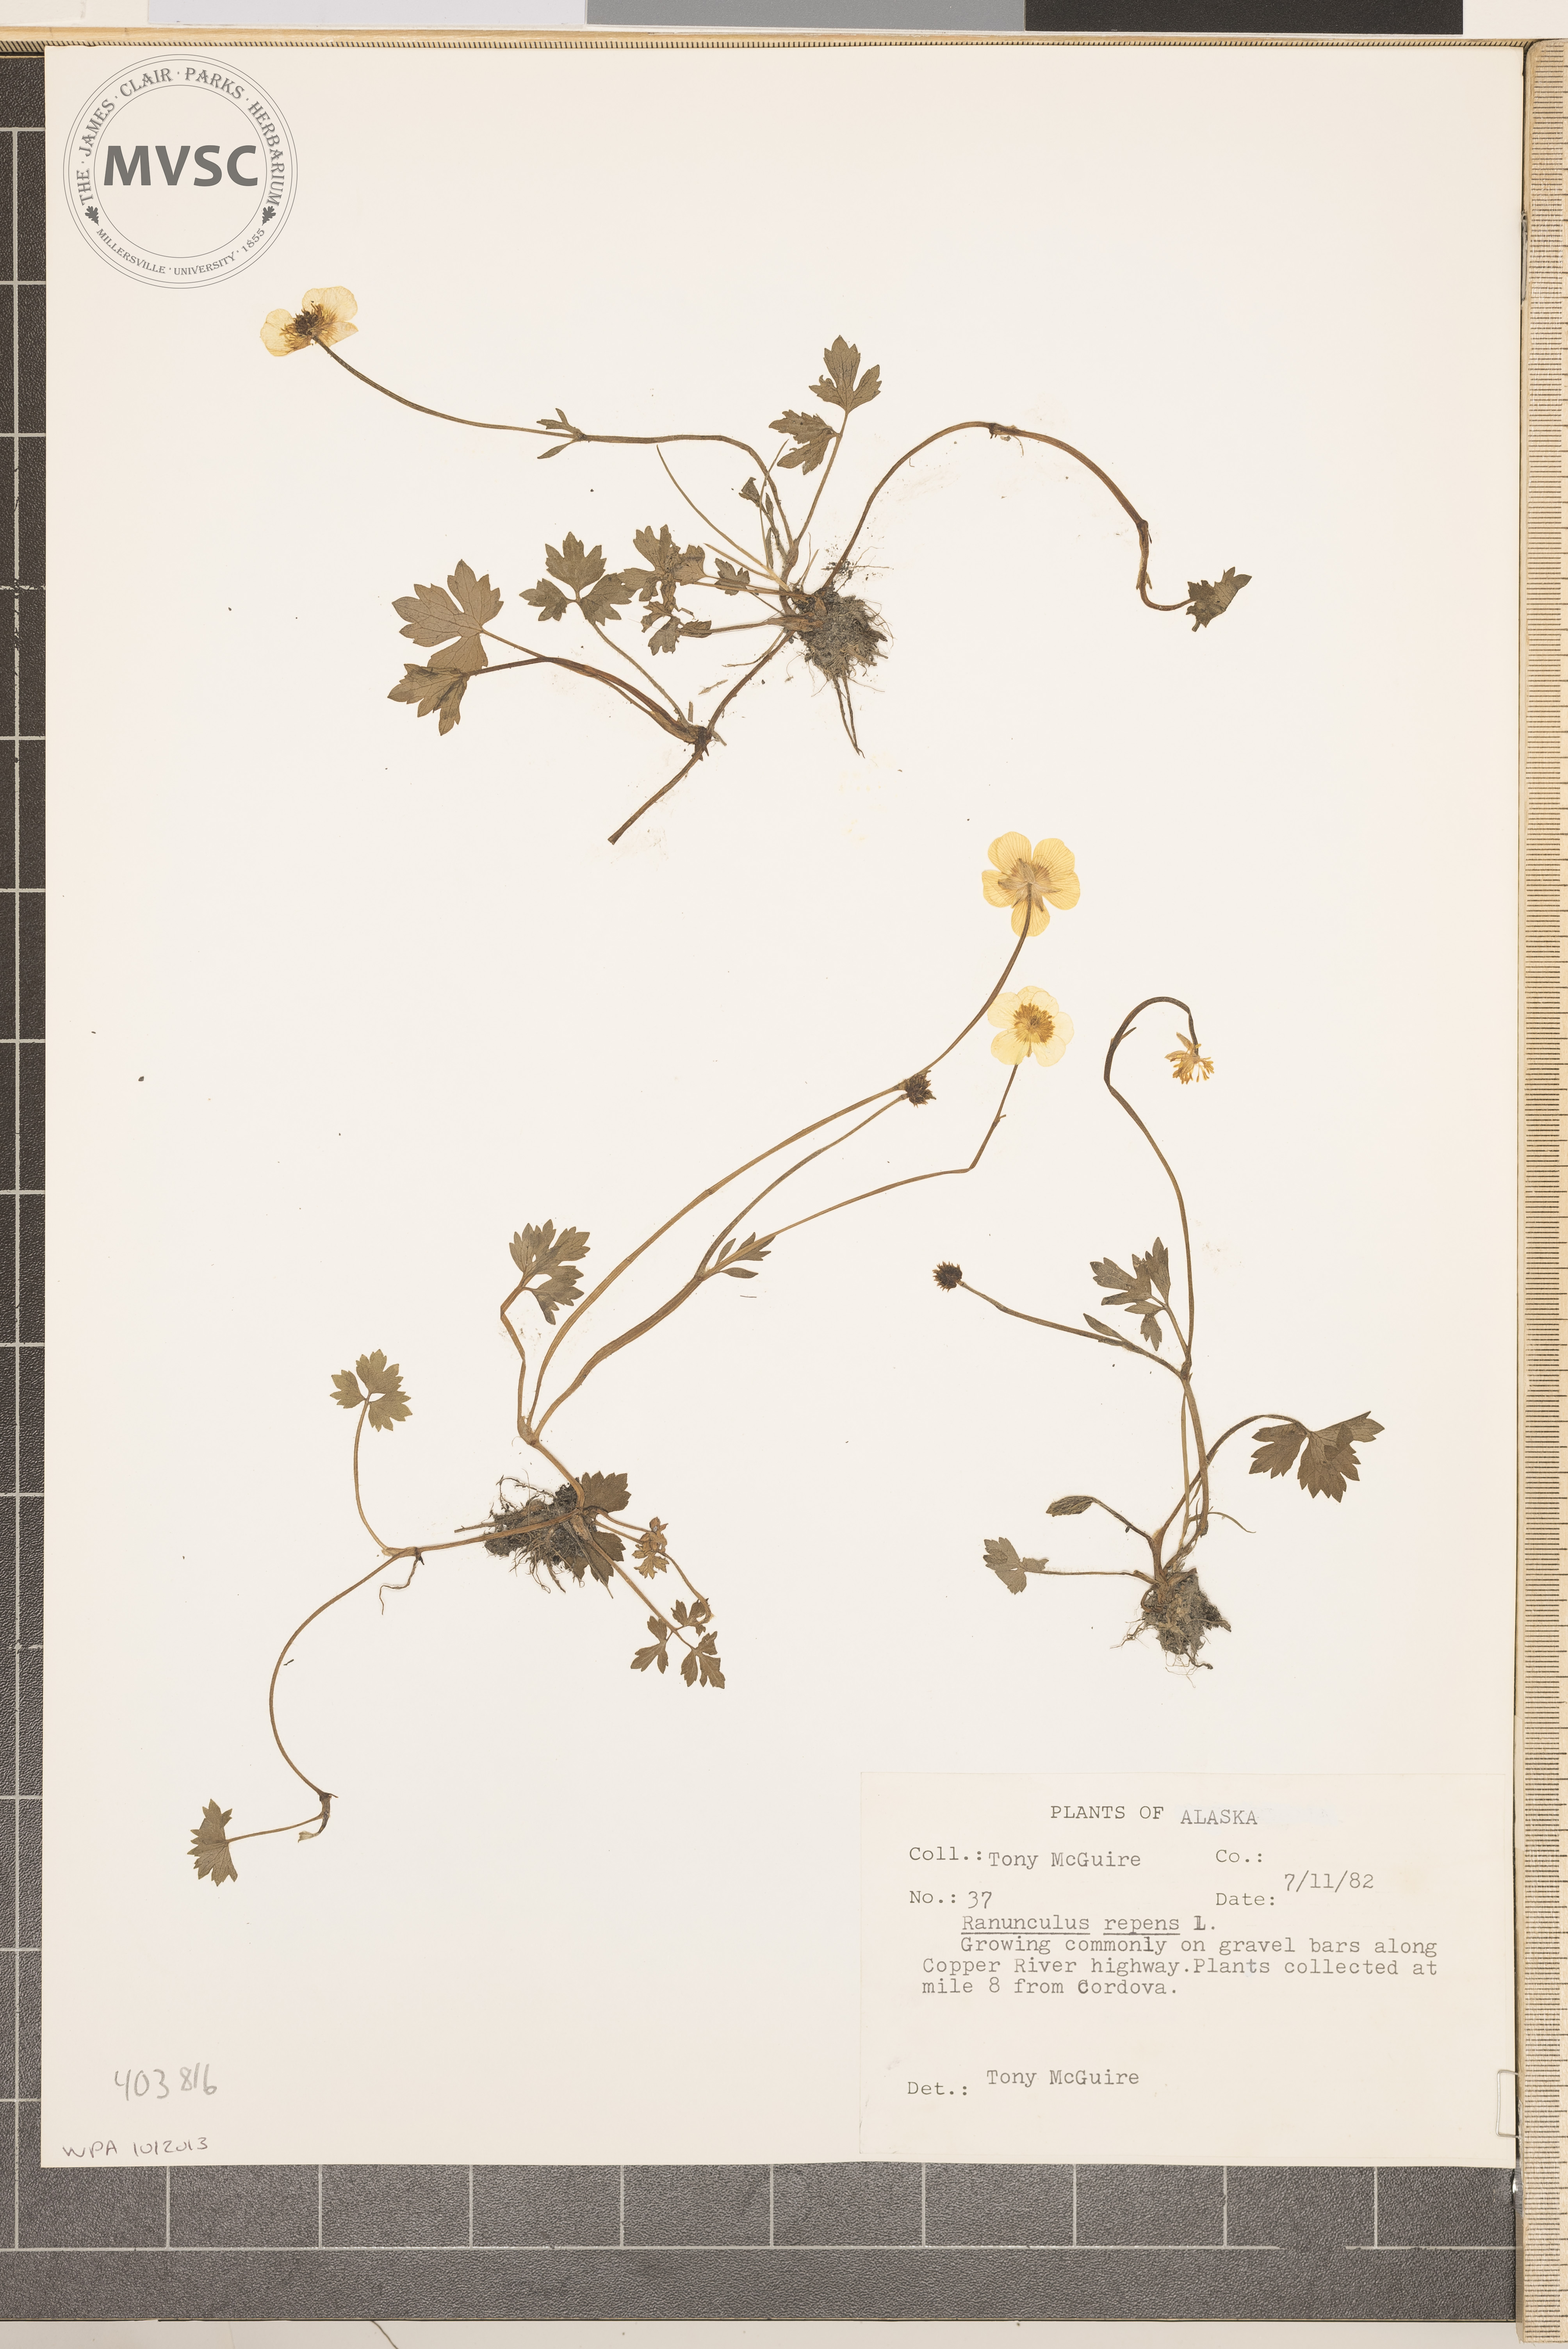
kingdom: Plantae
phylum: Tracheophyta
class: Magnoliopsida
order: Ranunculales
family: Ranunculaceae
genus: Ranunculus
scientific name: Ranunculus repens
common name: Creeping buttercup
